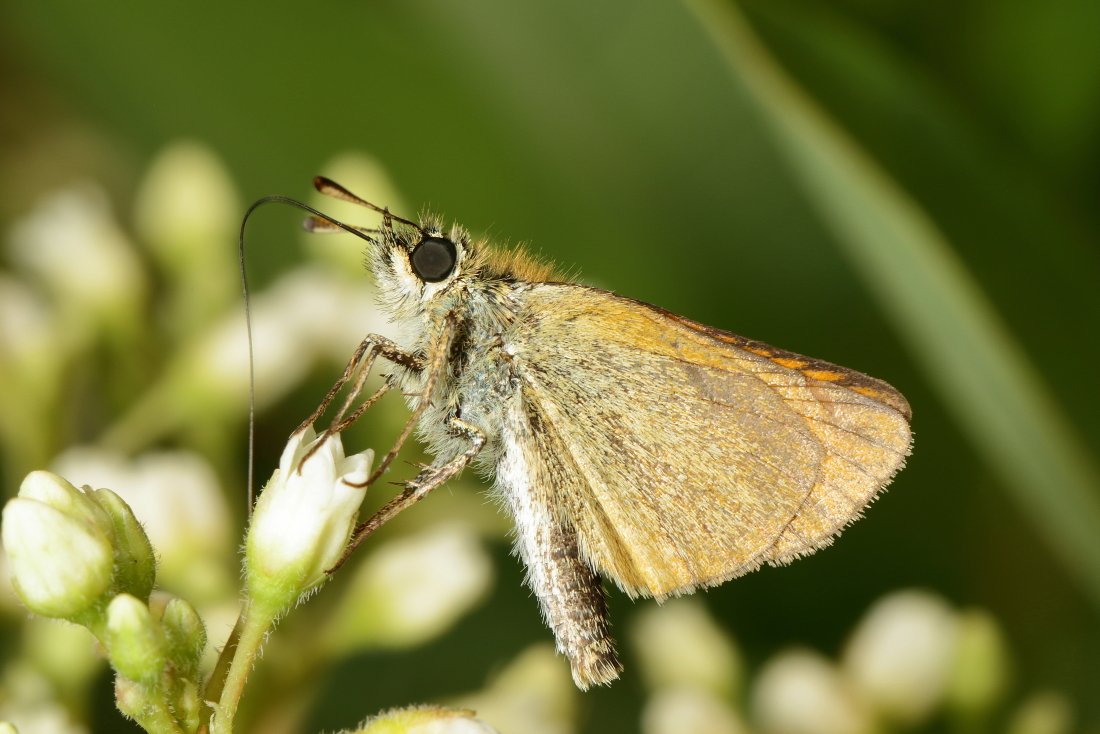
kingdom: Animalia
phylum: Arthropoda
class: Insecta
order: Lepidoptera
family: Hesperiidae
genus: Thymelicus
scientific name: Thymelicus lineola
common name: European Skipper
